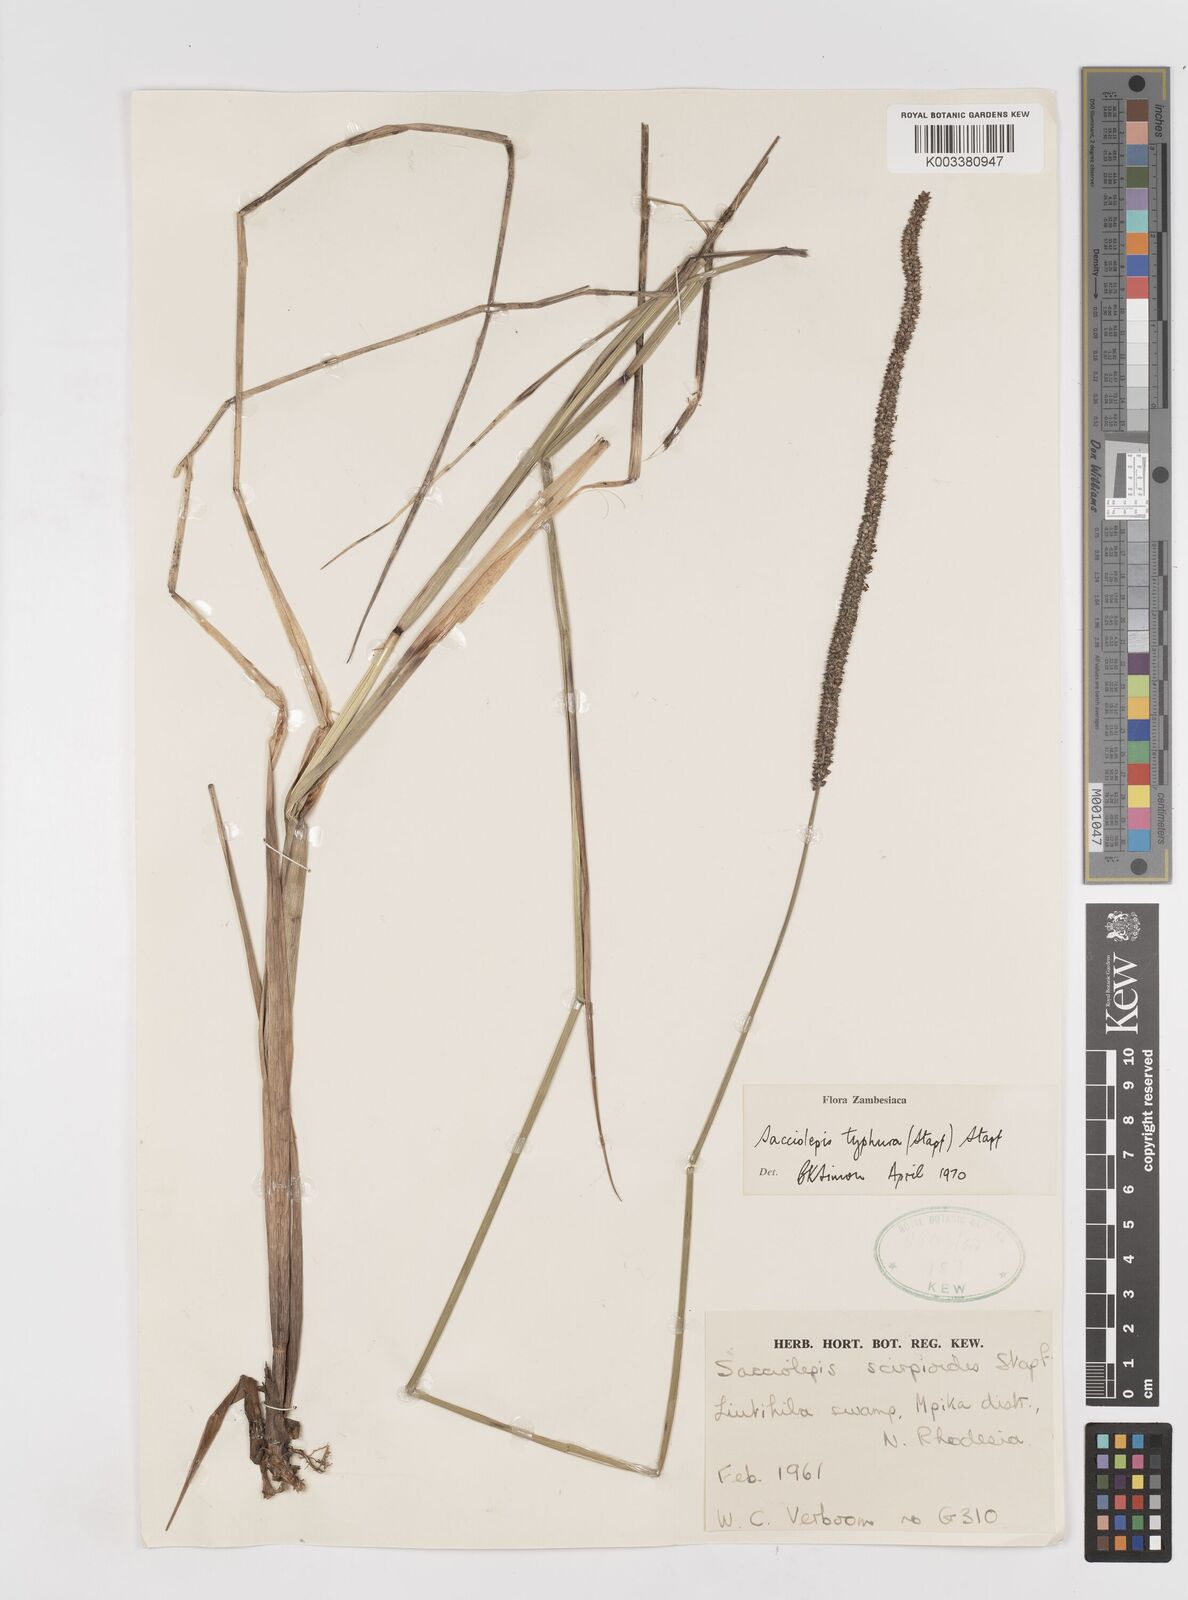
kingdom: Plantae
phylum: Tracheophyta
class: Liliopsida
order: Poales
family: Poaceae
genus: Sacciolepis
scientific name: Sacciolepis typhura
